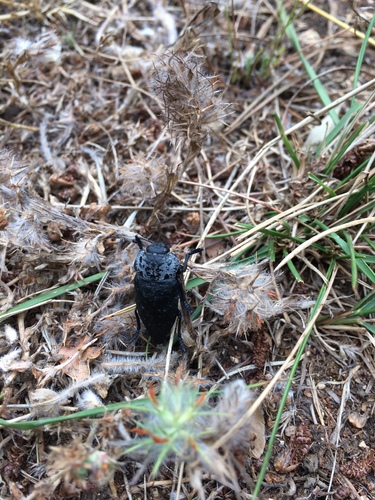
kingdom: Animalia
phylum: Arthropoda
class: Insecta
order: Coleoptera
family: Buprestidae
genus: Capnodis
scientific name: Capnodis tenebrionis
